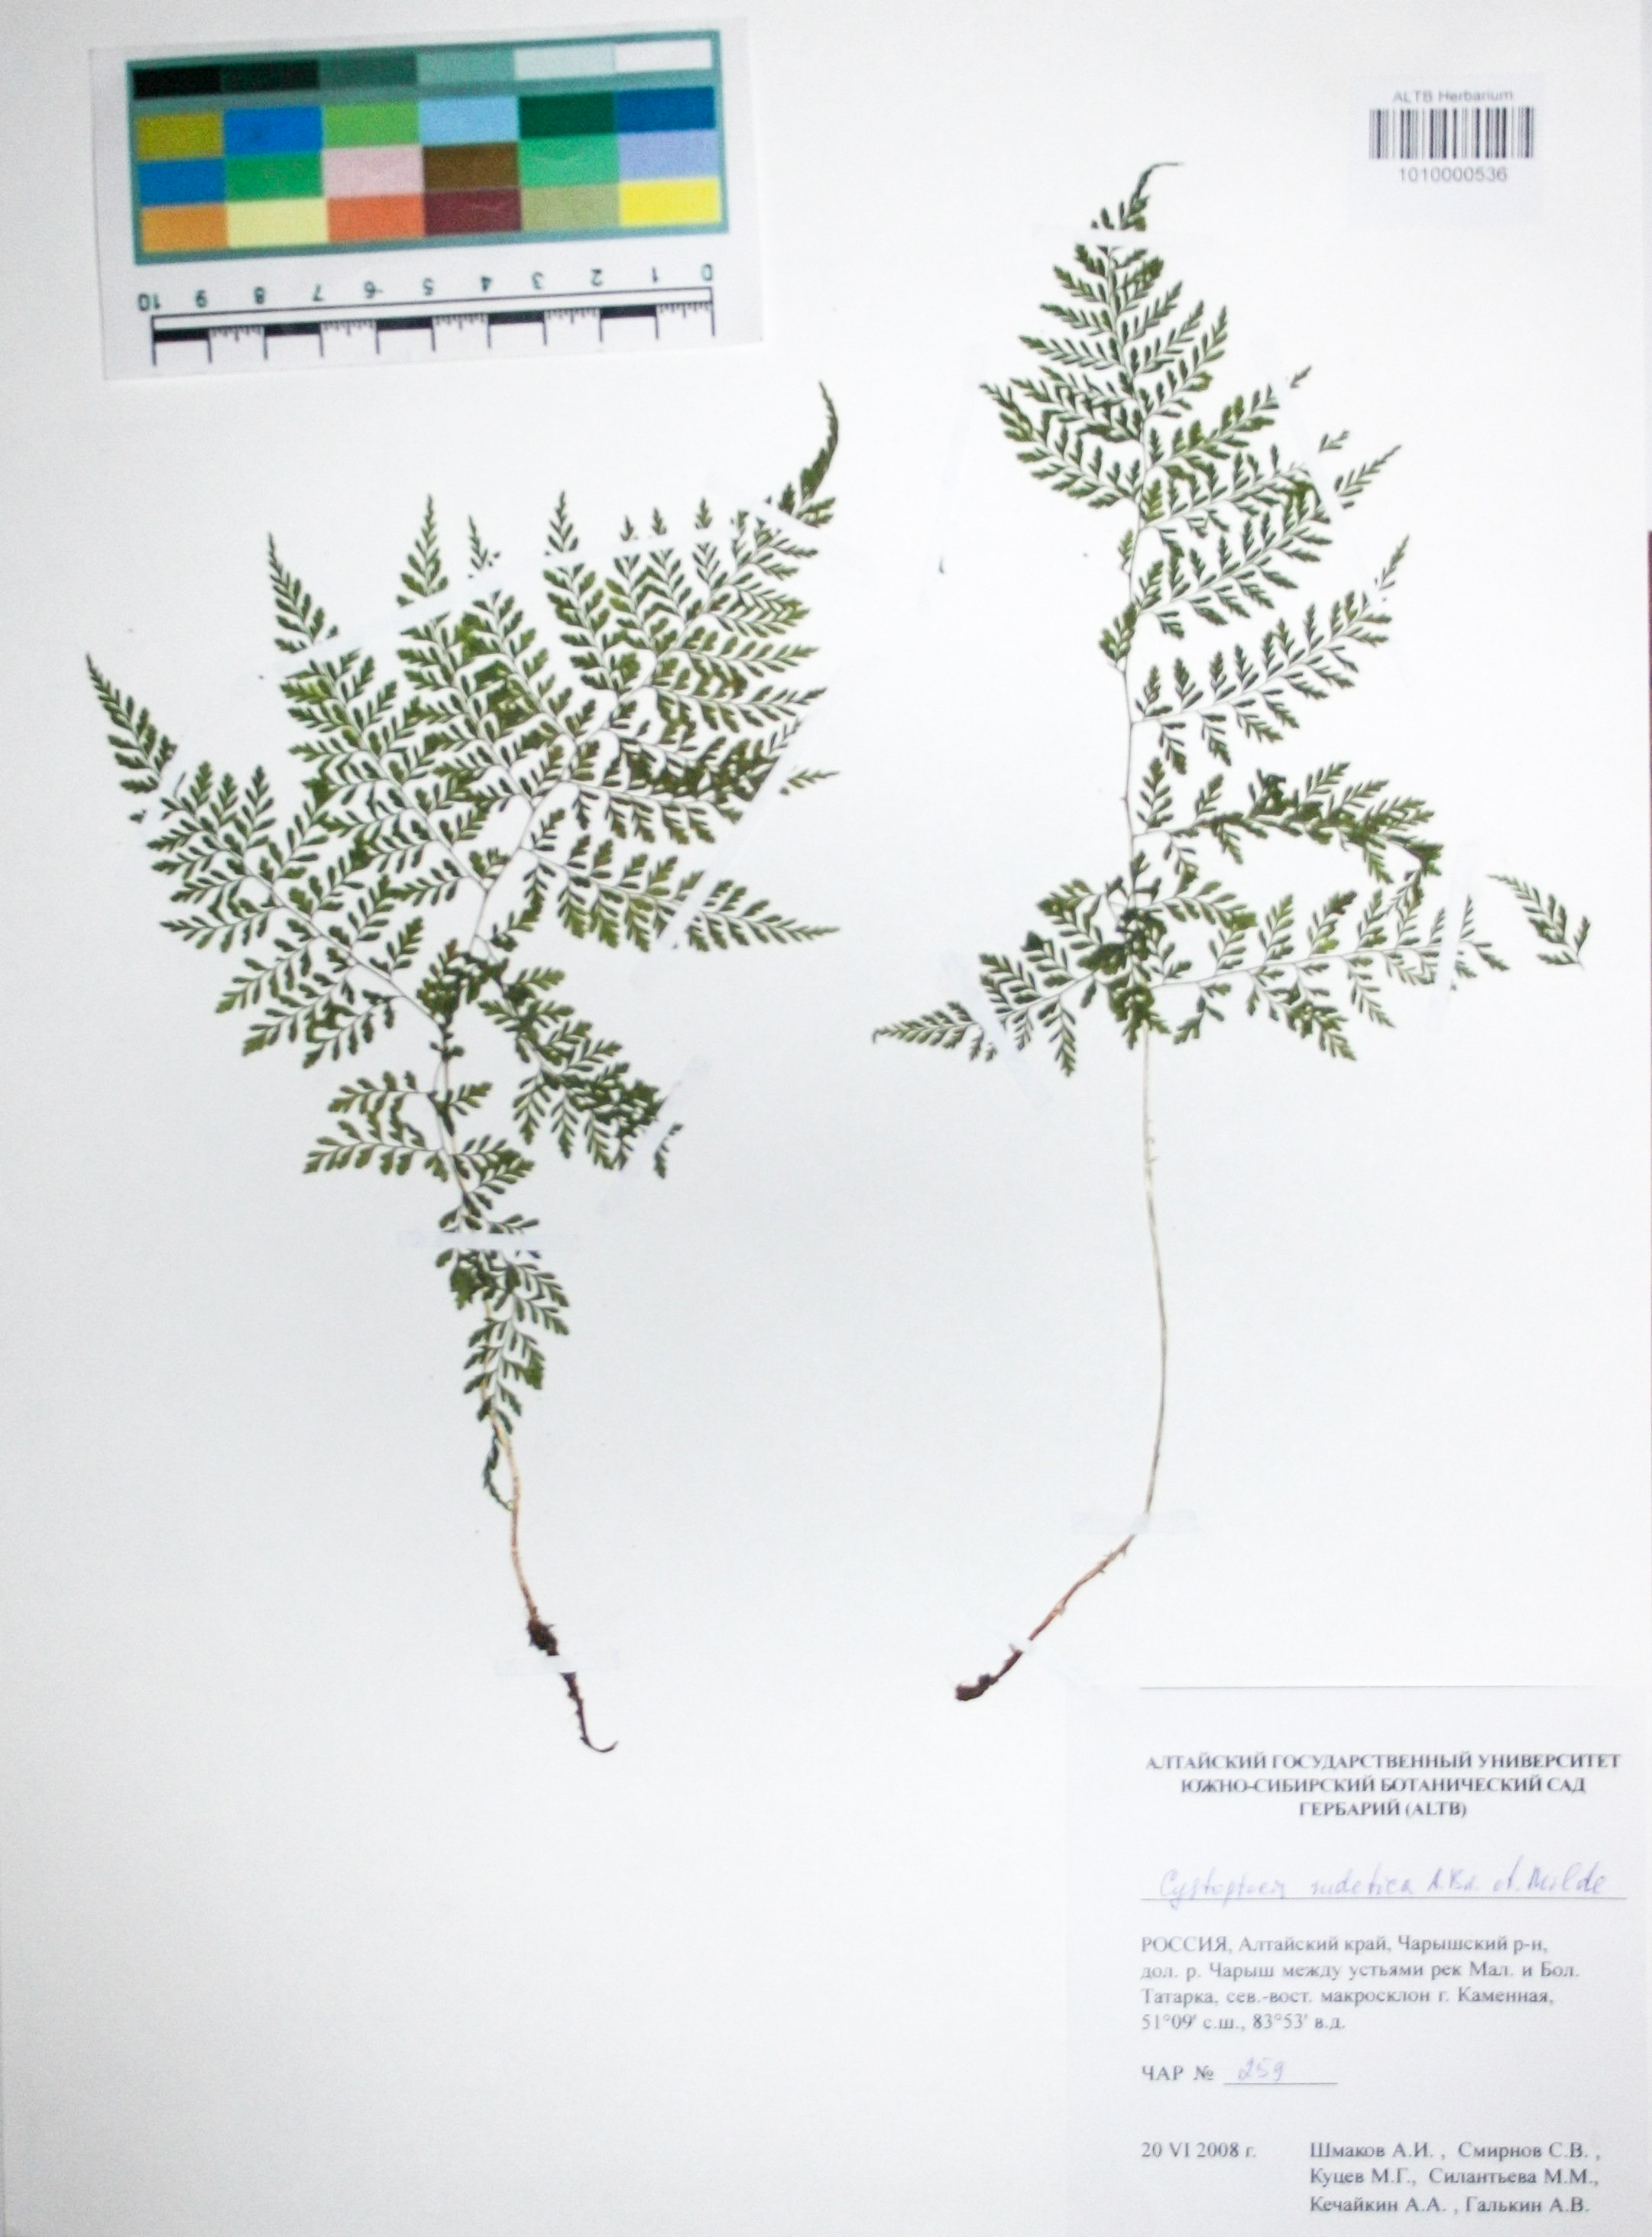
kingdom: Plantae
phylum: Tracheophyta
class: Polypodiopsida
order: Polypodiales
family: Cystopteridaceae
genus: Cystopteris
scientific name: Cystopteris sudetica
